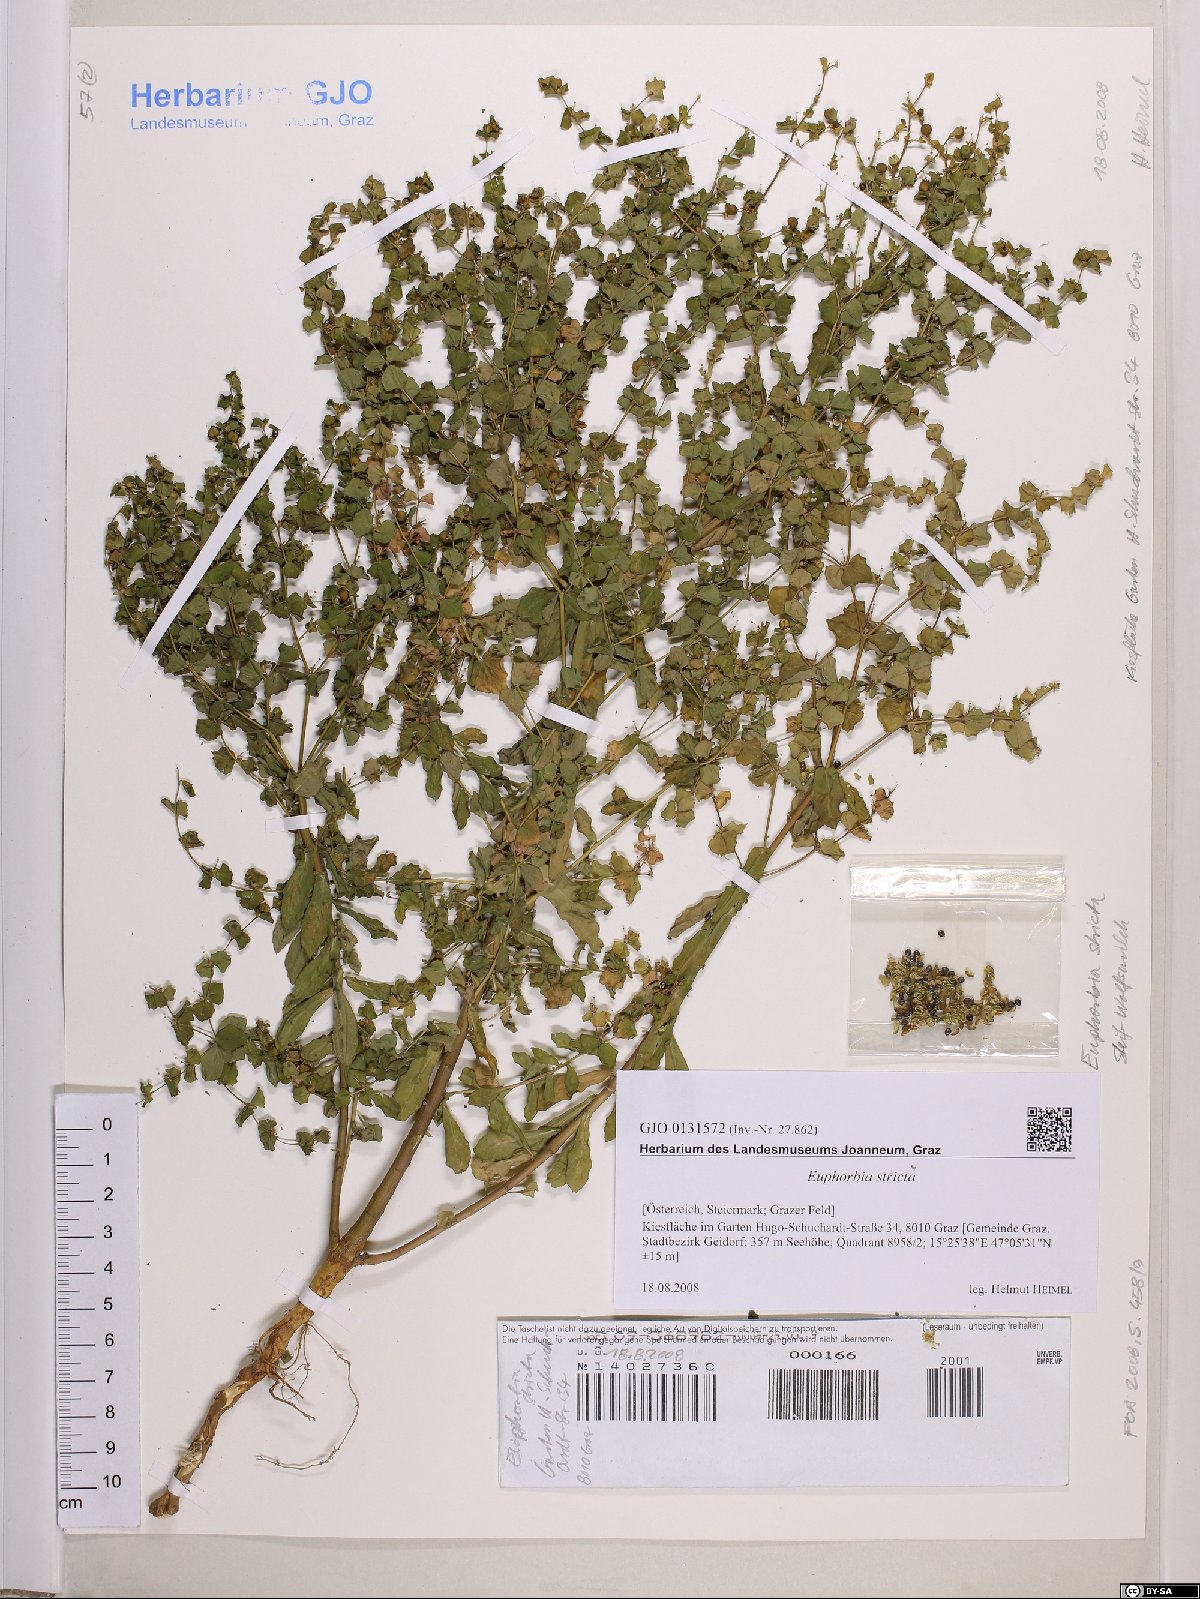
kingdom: Plantae
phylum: Tracheophyta
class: Magnoliopsida
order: Malpighiales
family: Euphorbiaceae
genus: Euphorbia
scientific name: Euphorbia stricta
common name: Upright spurge
